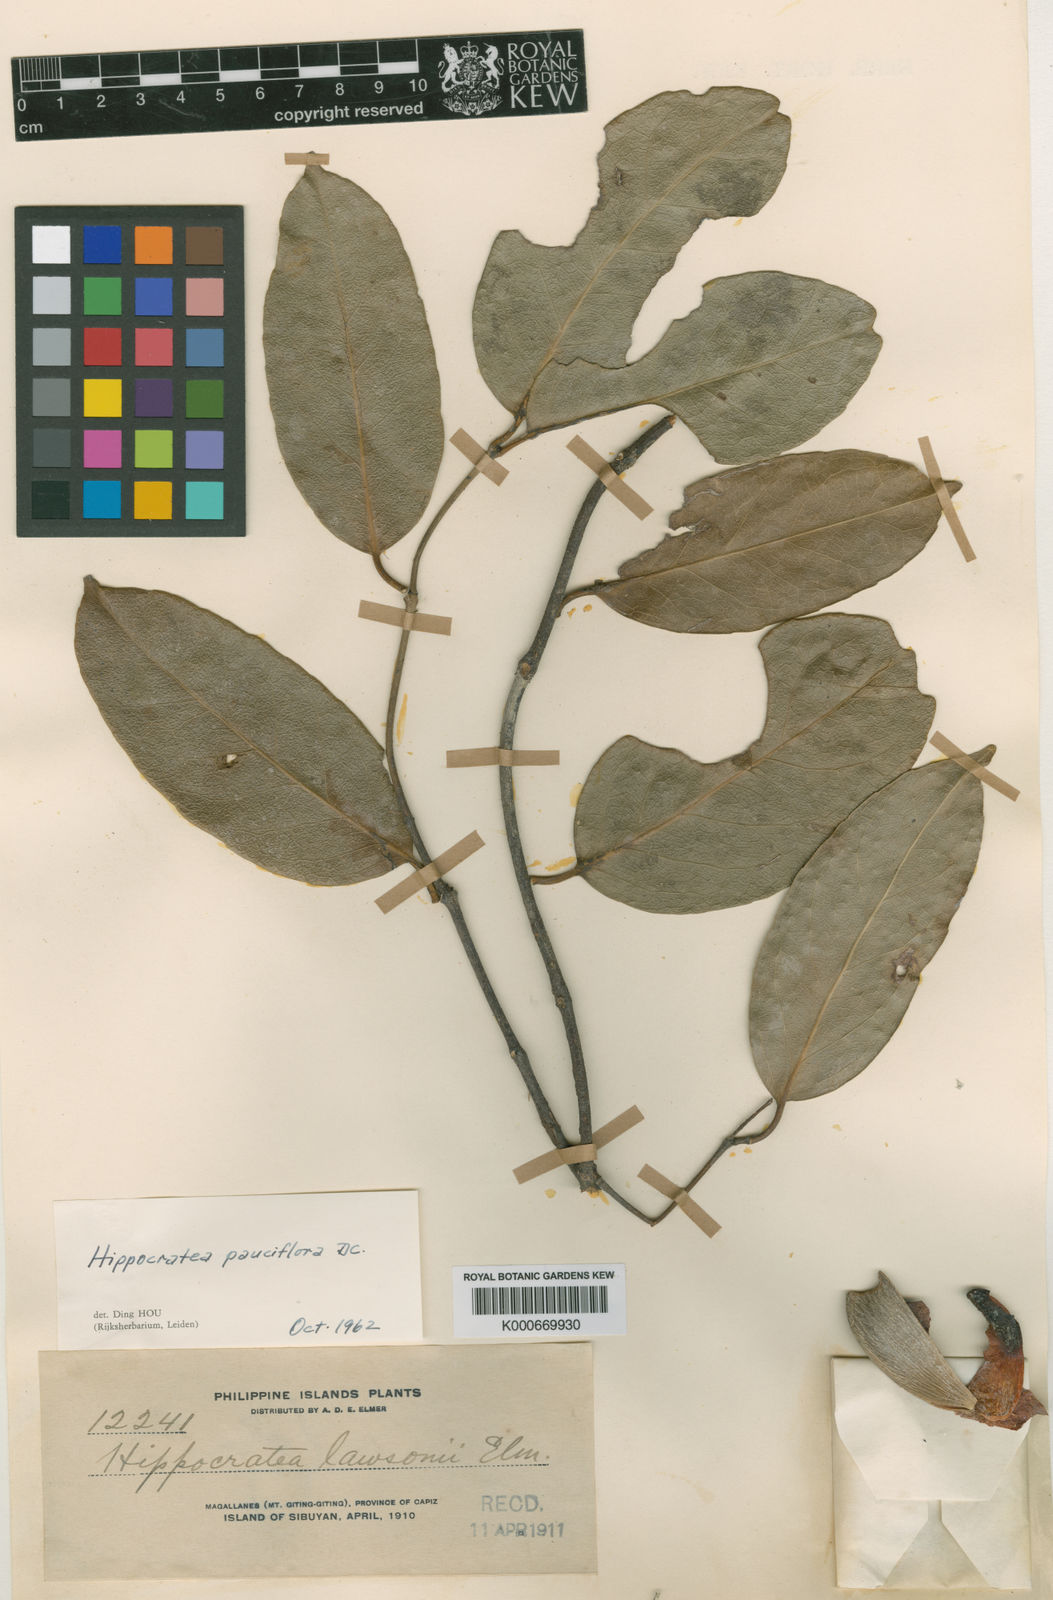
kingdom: Plantae
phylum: Tracheophyta
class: Magnoliopsida
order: Celastrales
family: Celastraceae
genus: Loeseneriella
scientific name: Loeseneriella macrantha
